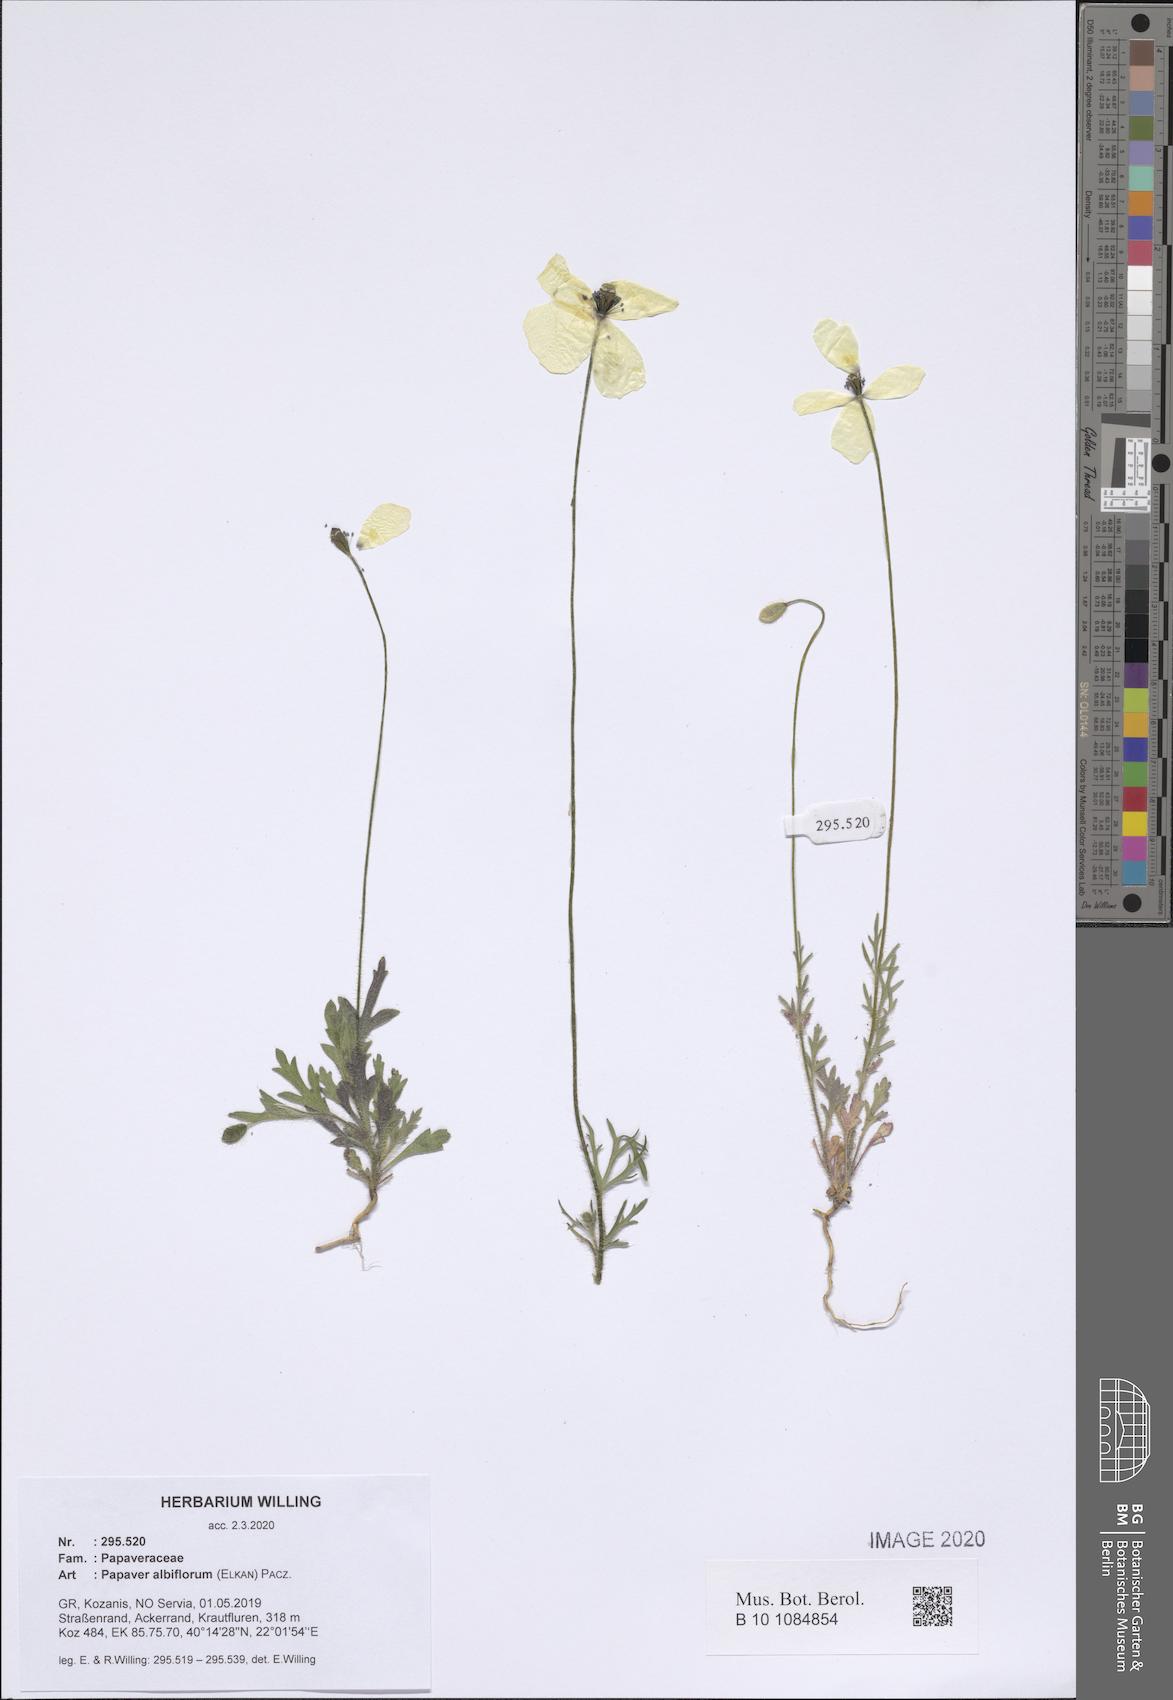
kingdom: Plantae
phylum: Tracheophyta
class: Magnoliopsida
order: Ranunculales
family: Papaveraceae
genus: Papaver
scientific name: Papaver albiflorum
